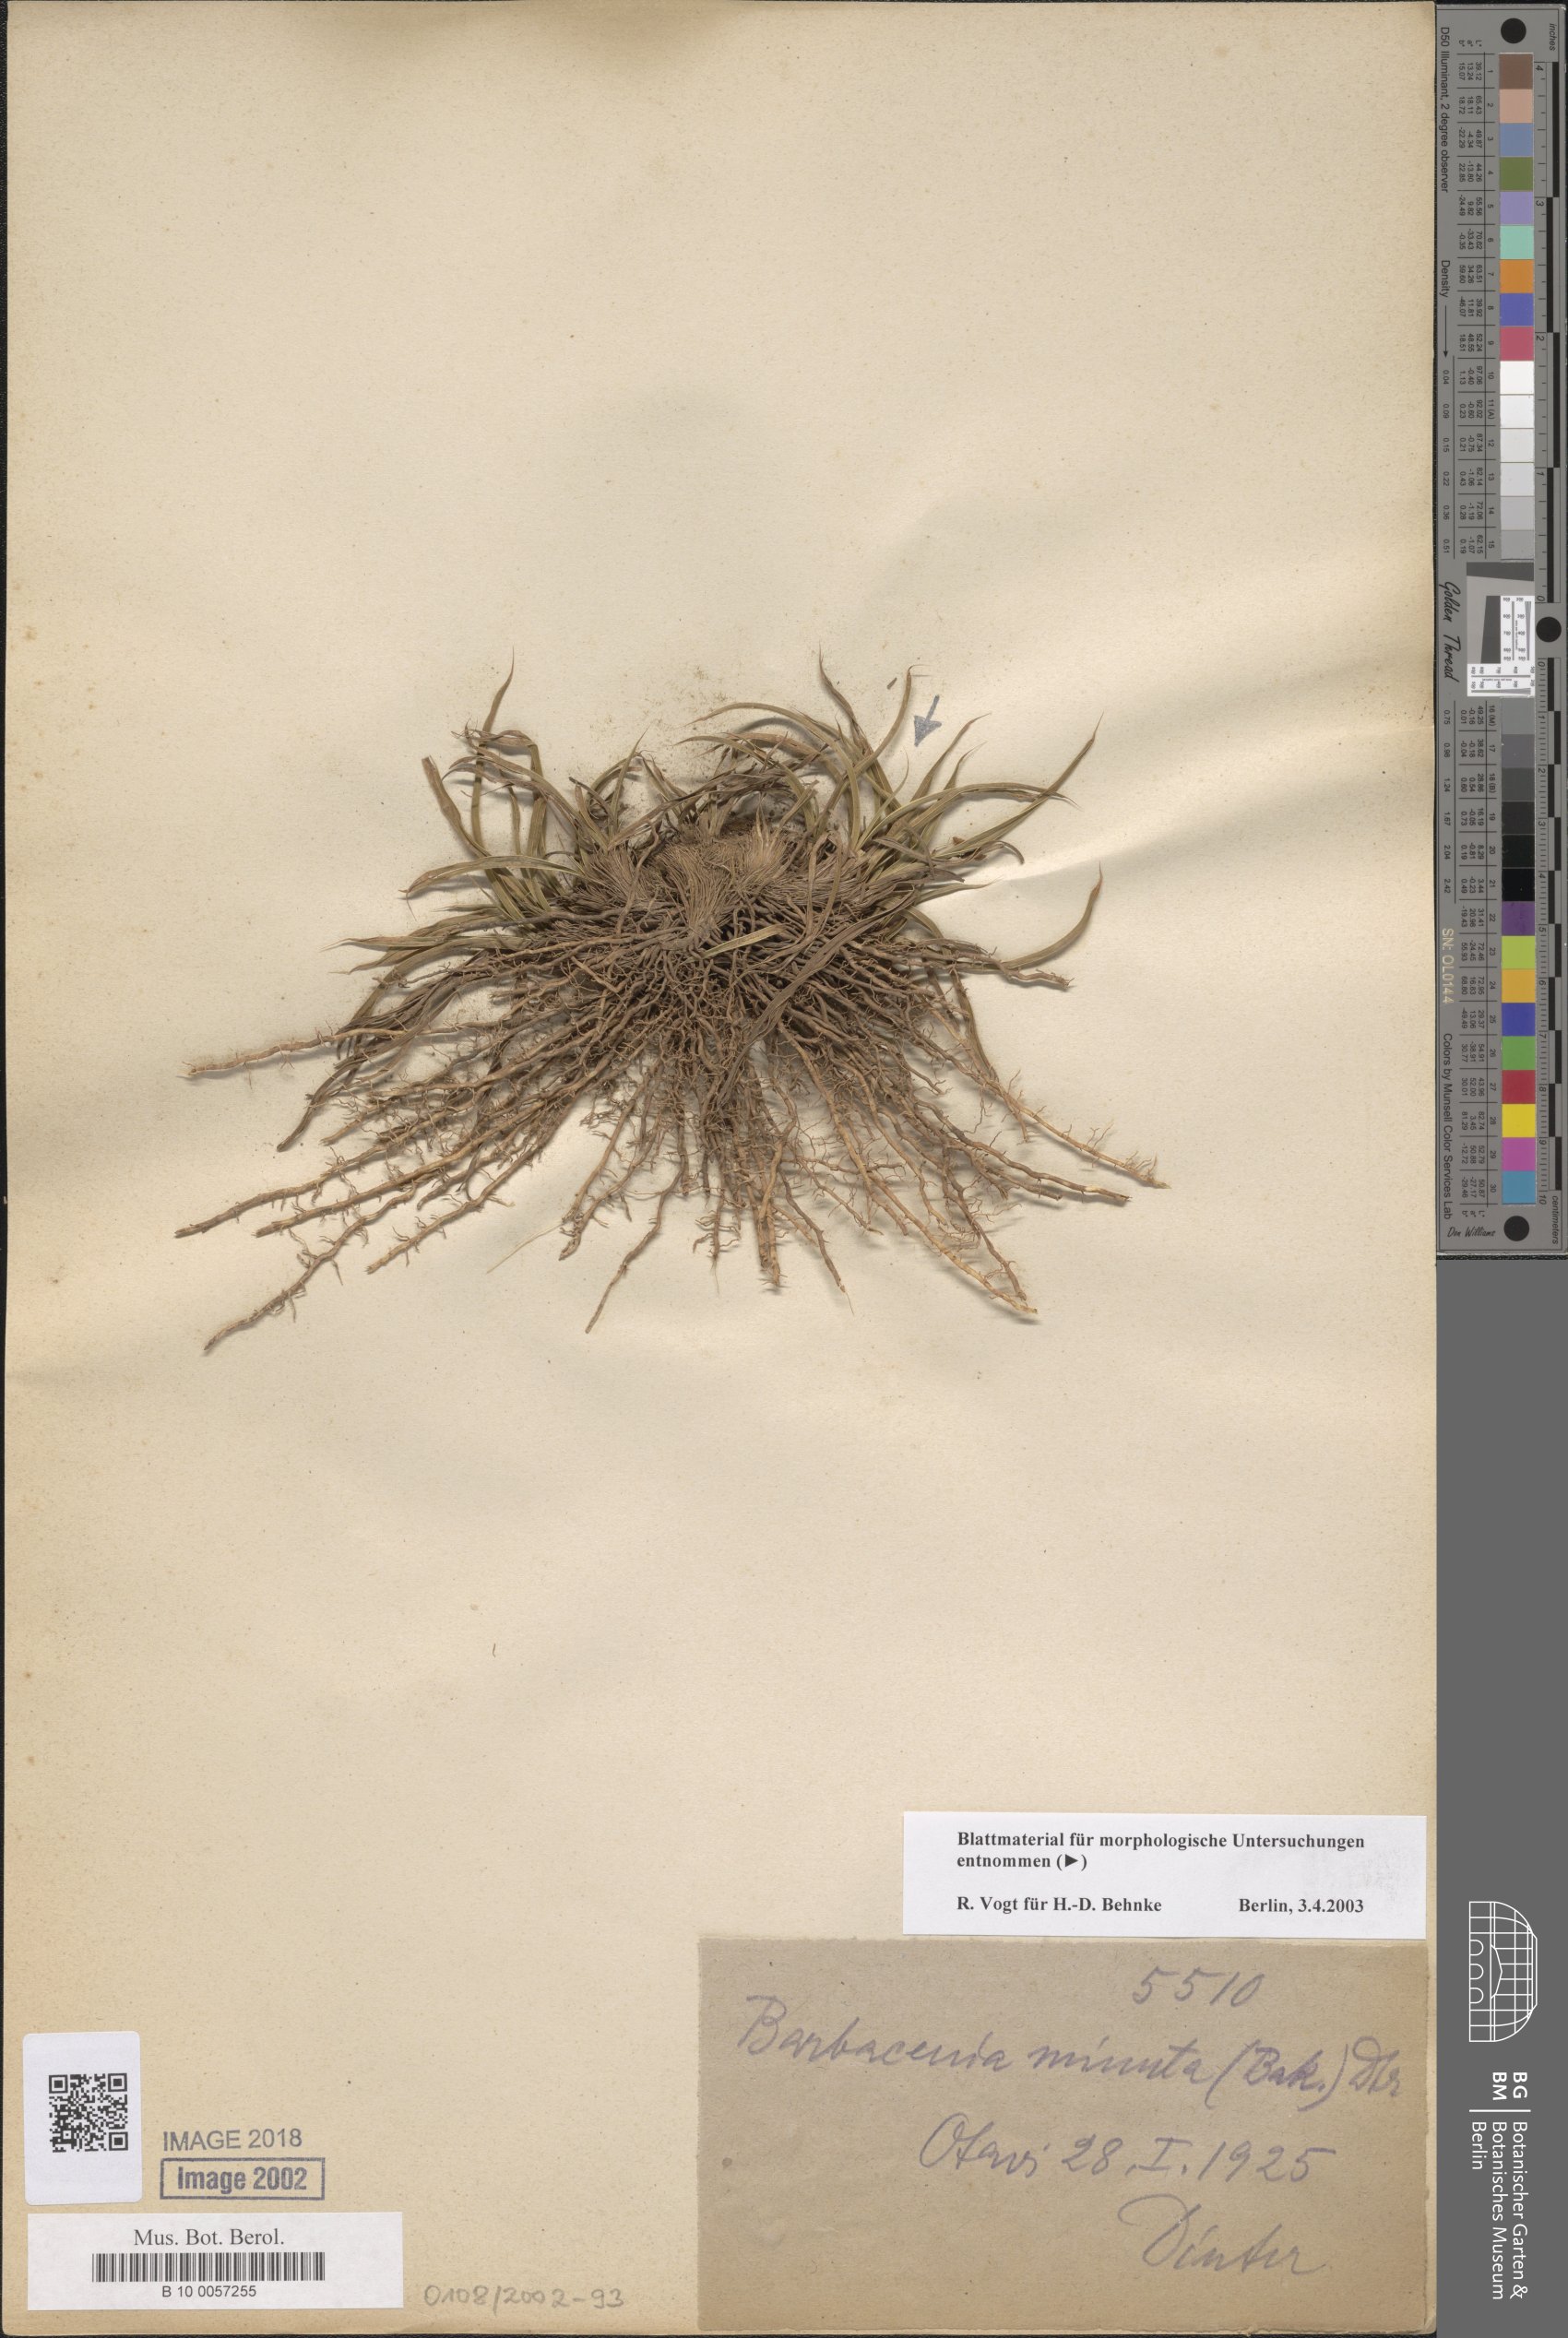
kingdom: Plantae
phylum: Tracheophyta
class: Liliopsida
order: Pandanales
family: Velloziaceae
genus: Xerophyta
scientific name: Xerophyta elegans
